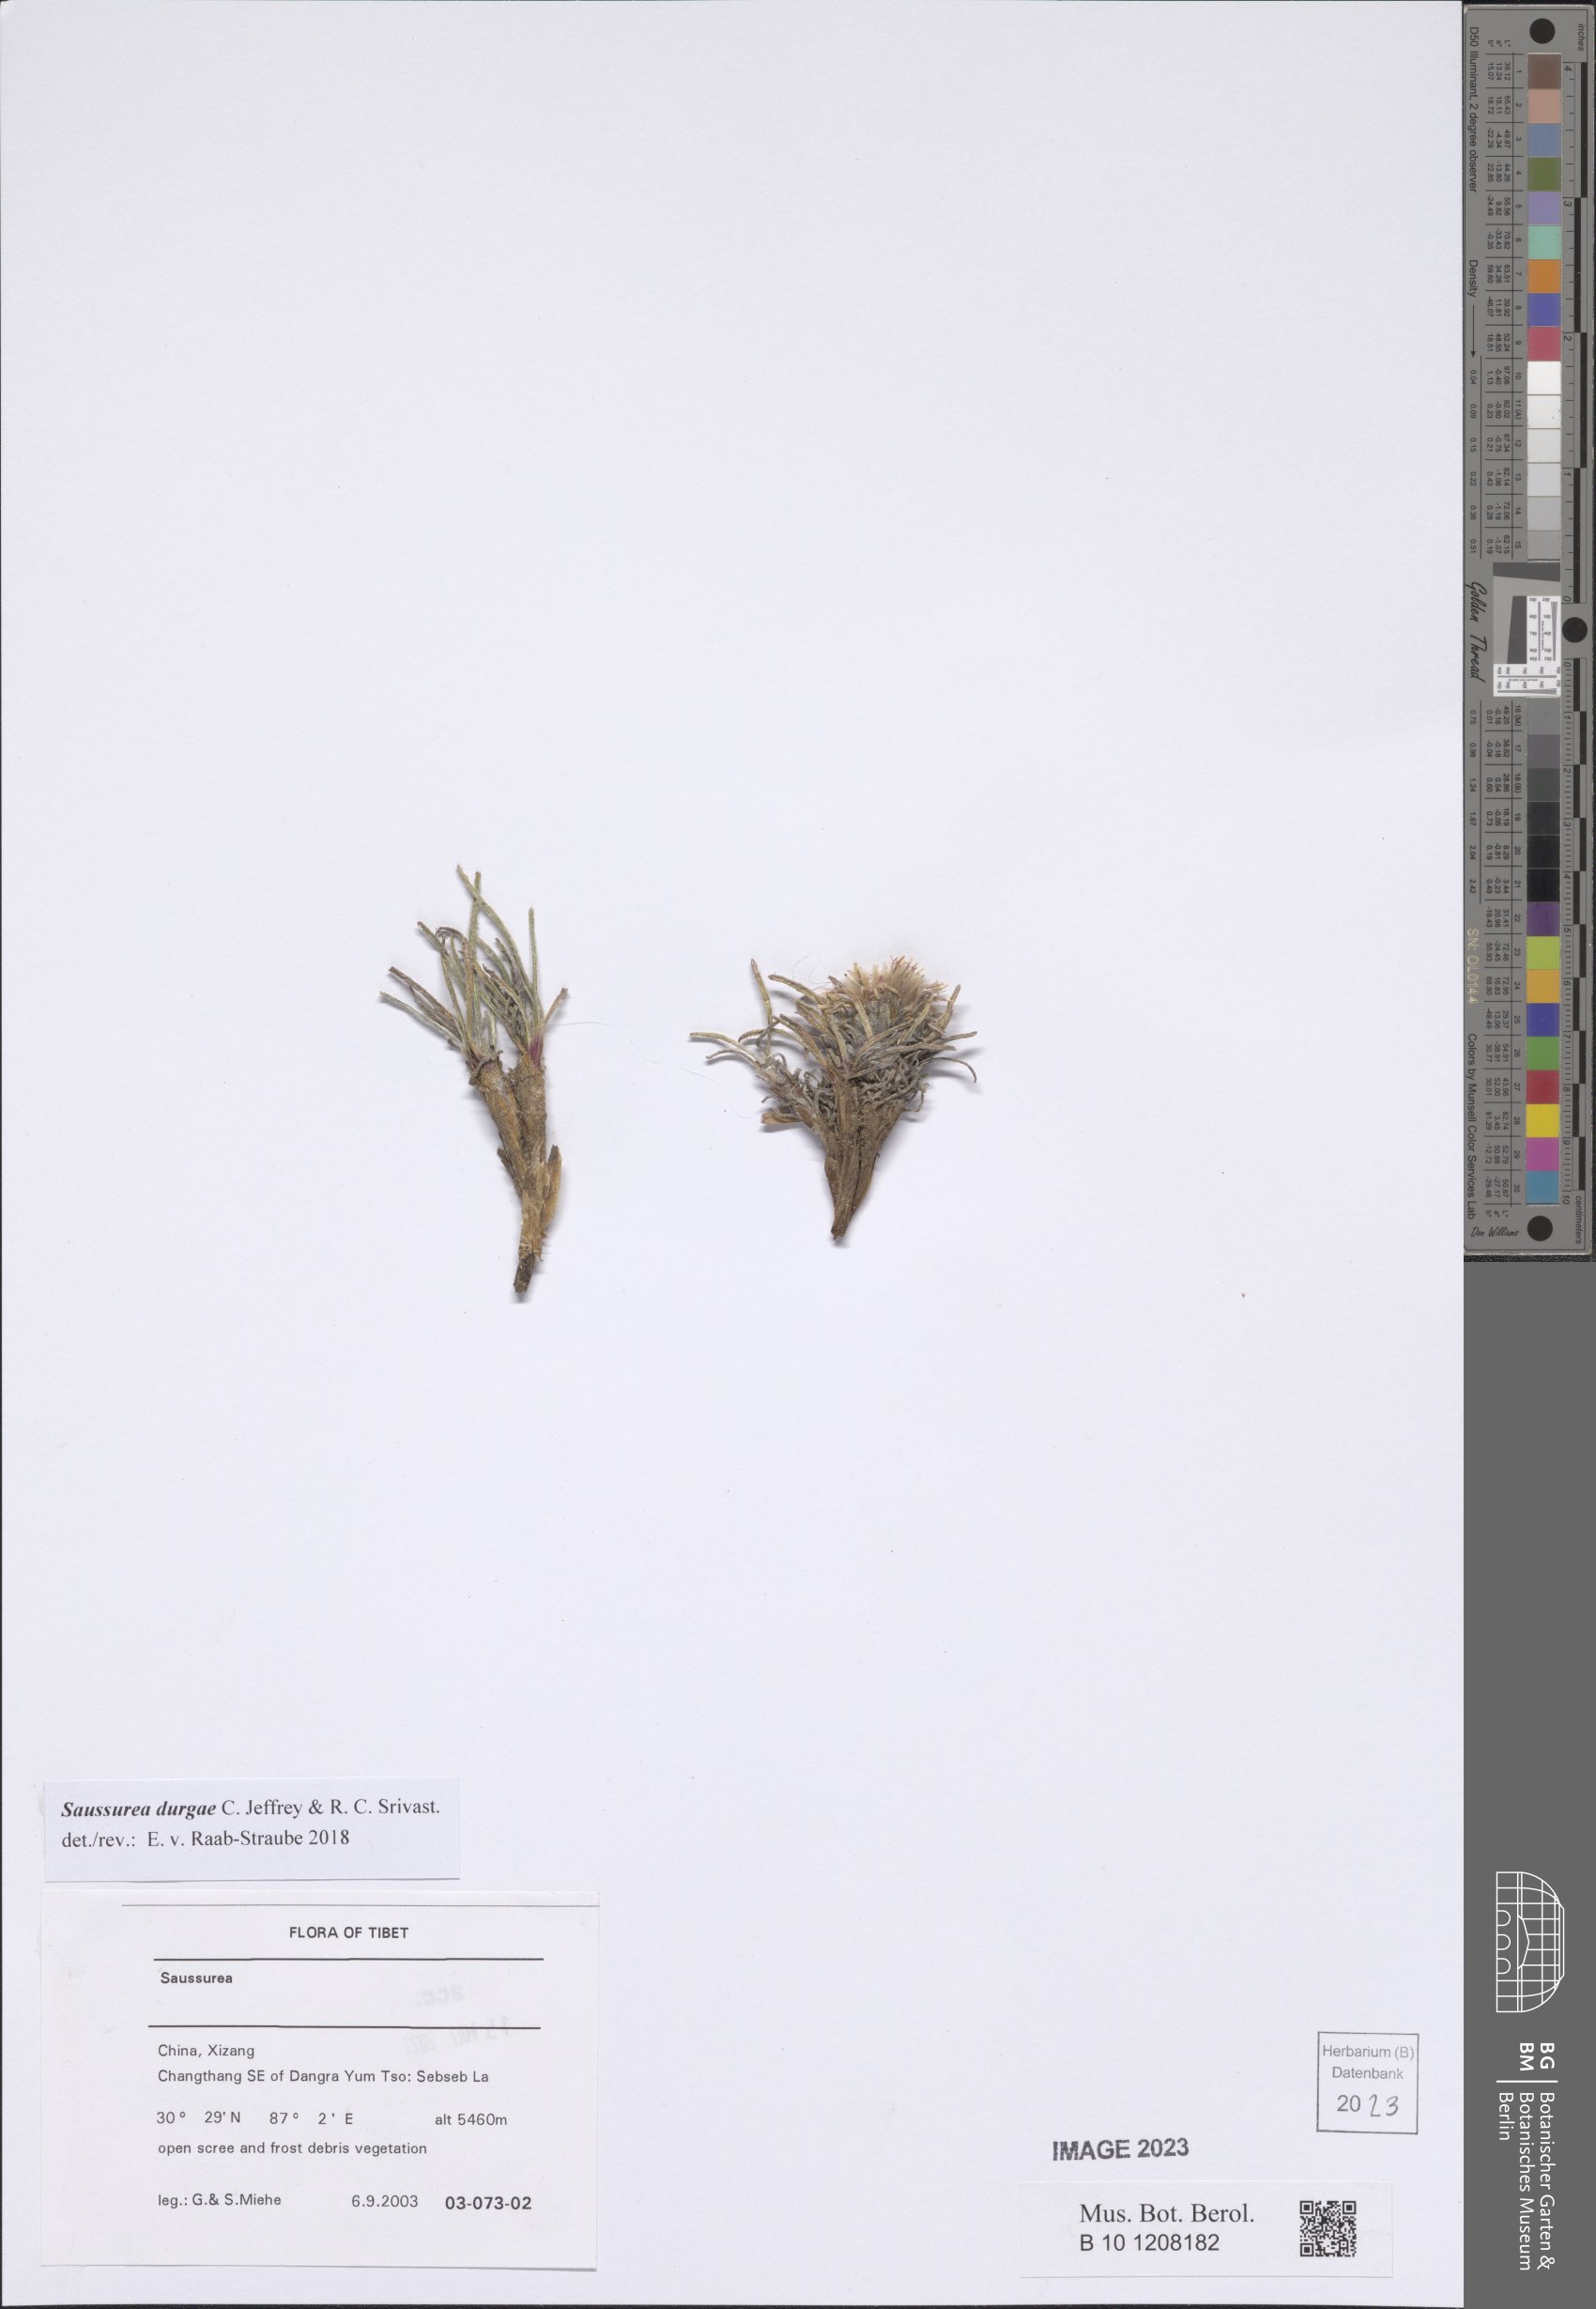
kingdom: Plantae
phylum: Tracheophyta
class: Magnoliopsida
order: Asterales
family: Asteraceae
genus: Saussurea
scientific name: Saussurea durgae
